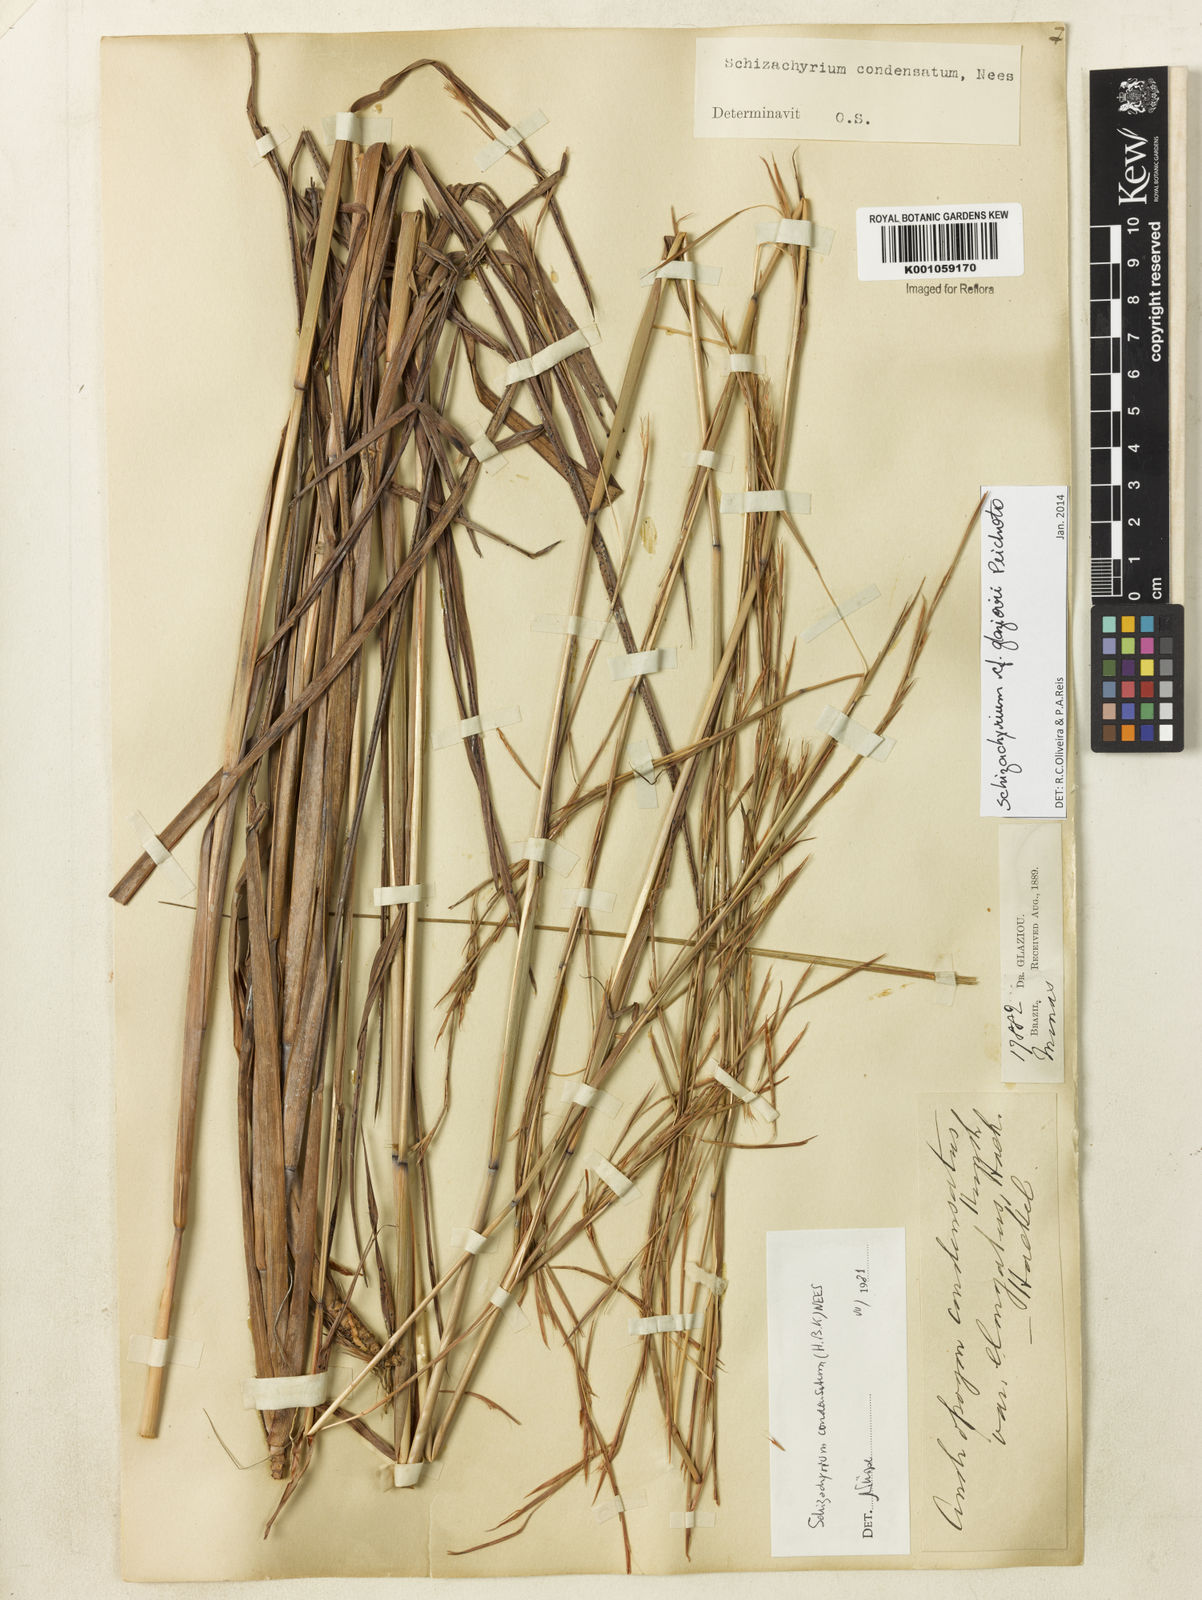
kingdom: Plantae
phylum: Tracheophyta
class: Liliopsida
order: Poales
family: Poaceae
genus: Schizachyrium
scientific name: Schizachyrium glaziovii
